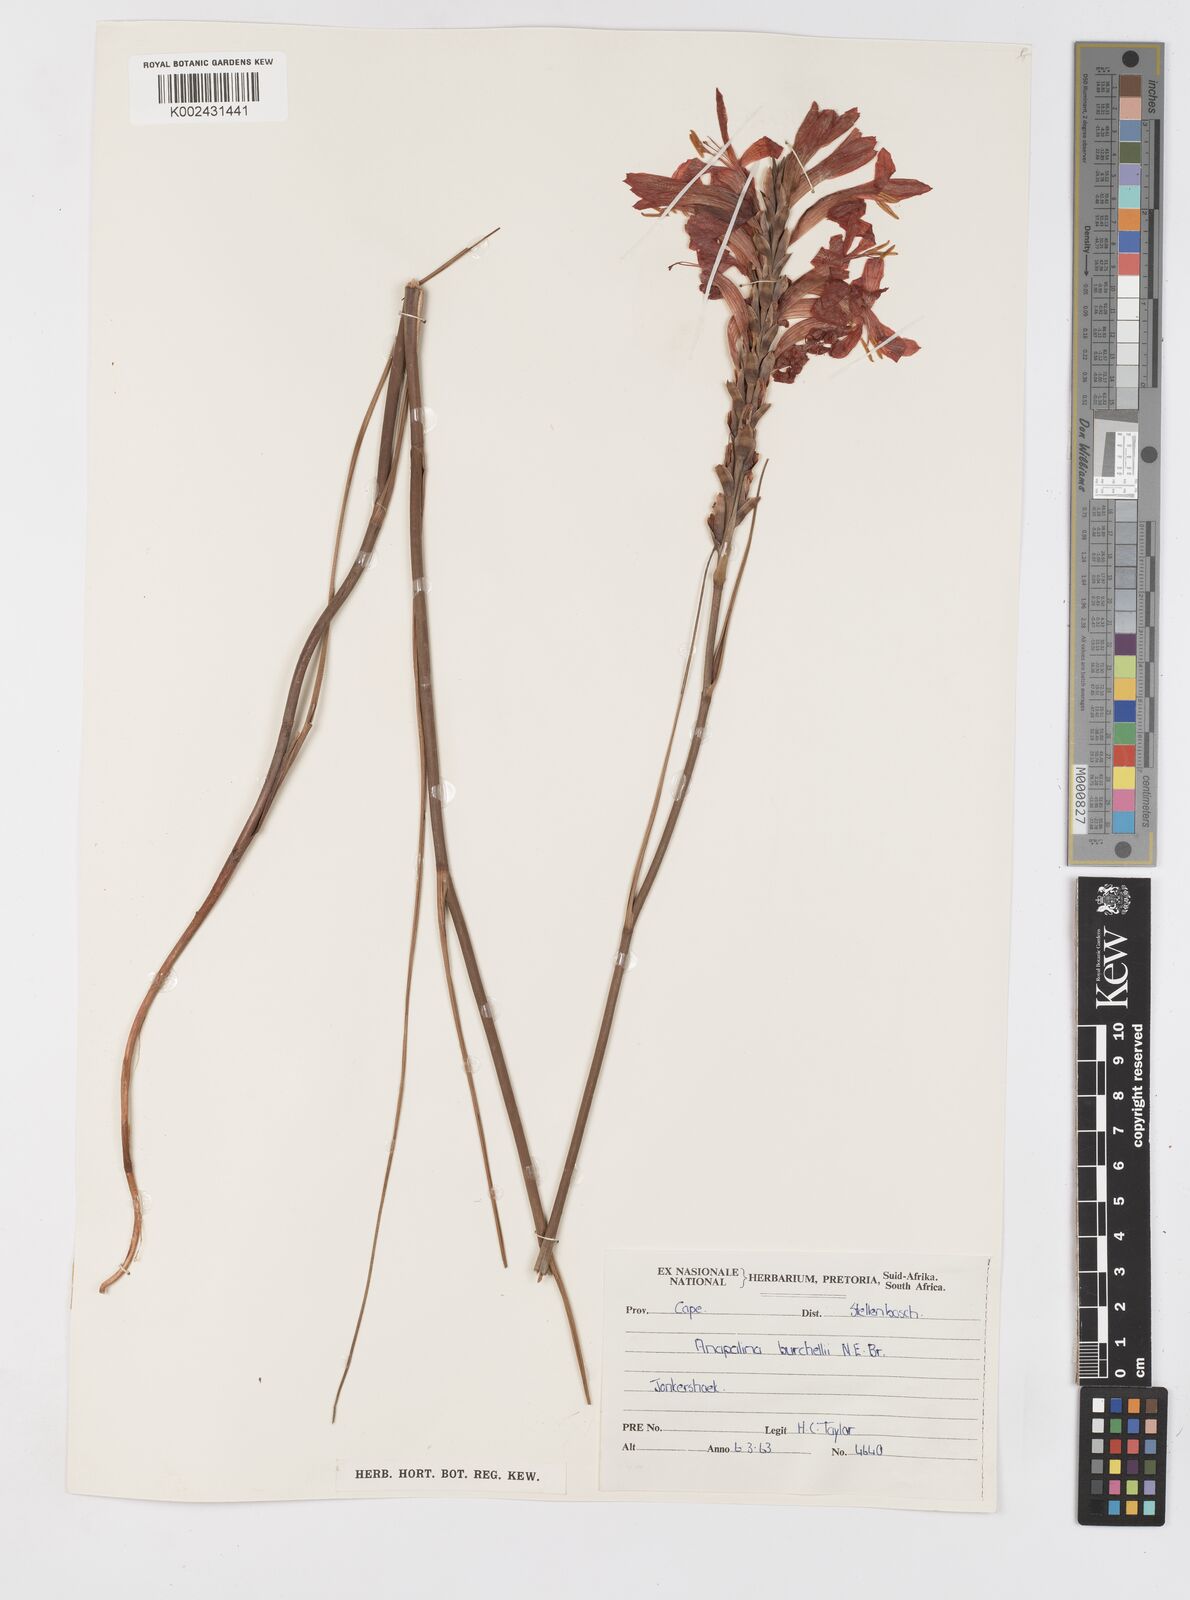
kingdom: Plantae
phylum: Tracheophyta
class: Liliopsida
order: Asparagales
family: Iridaceae
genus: Tritoniopsis
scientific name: Tritoniopsis triticea
